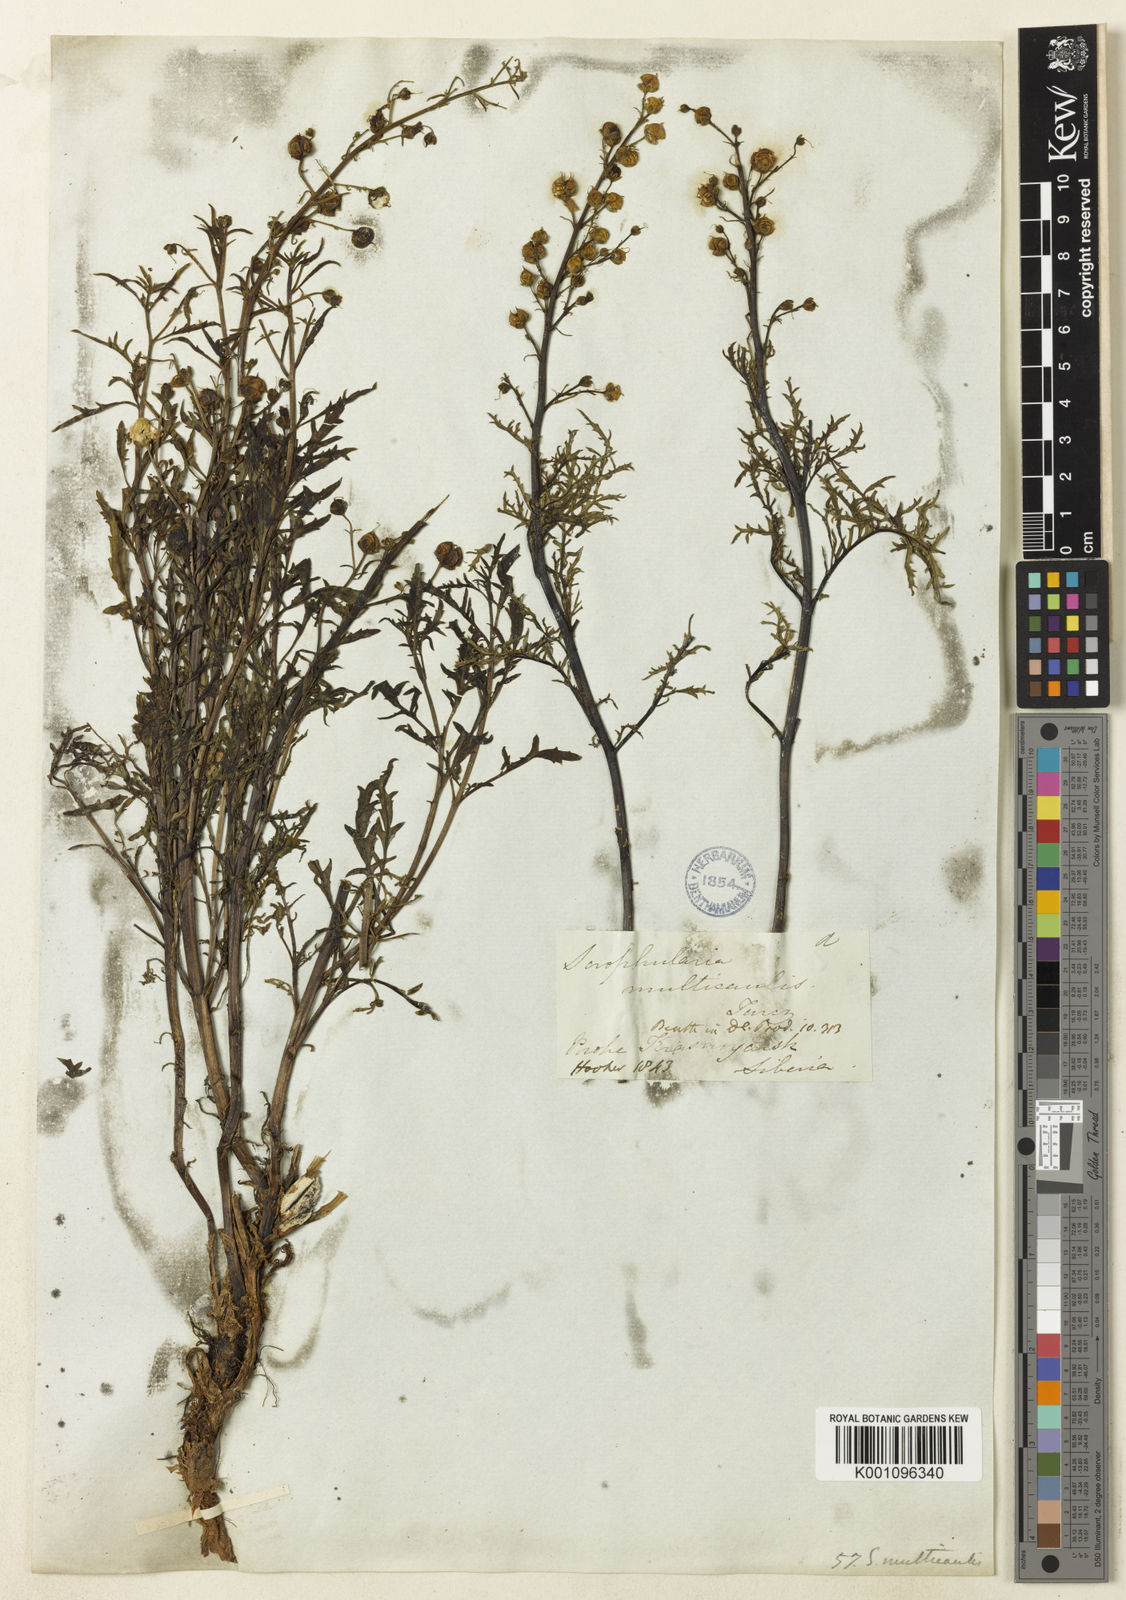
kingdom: Plantae
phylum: Tracheophyta
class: Magnoliopsida
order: Lamiales
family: Scrophulariaceae
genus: Scrophularia
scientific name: Scrophularia multicaulis
